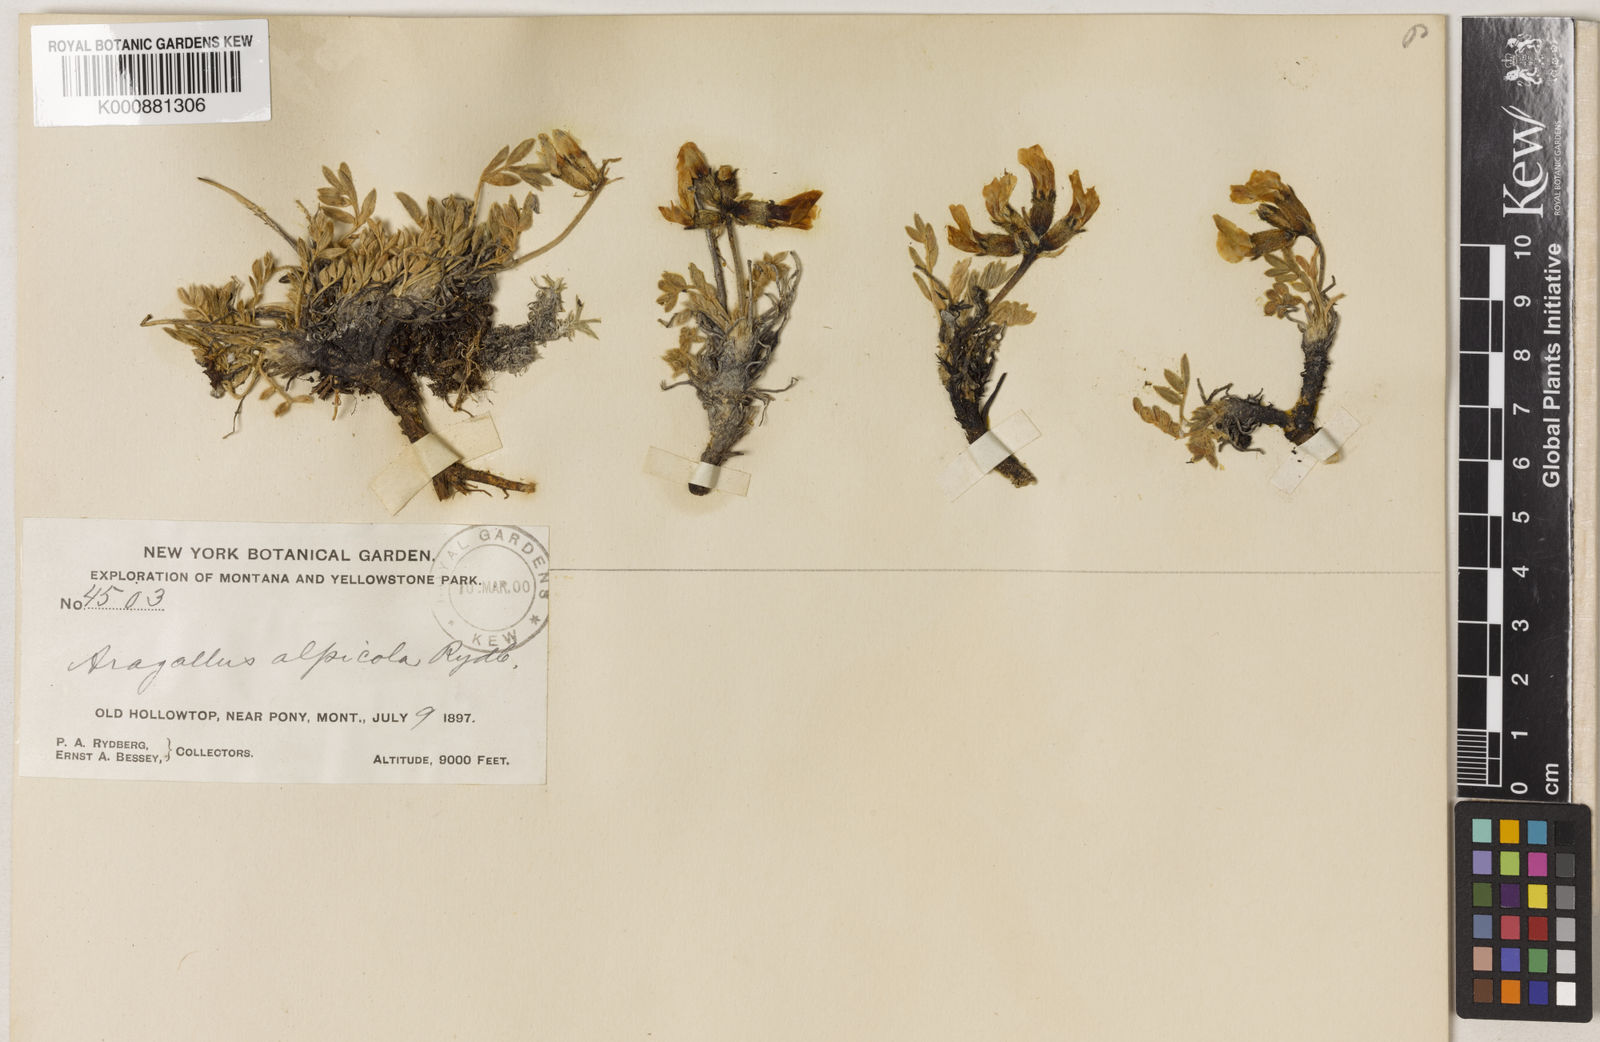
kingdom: Plantae
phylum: Tracheophyta
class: Magnoliopsida
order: Fabales
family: Fabaceae
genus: Oxytropis
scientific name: Oxytropis alpicola
